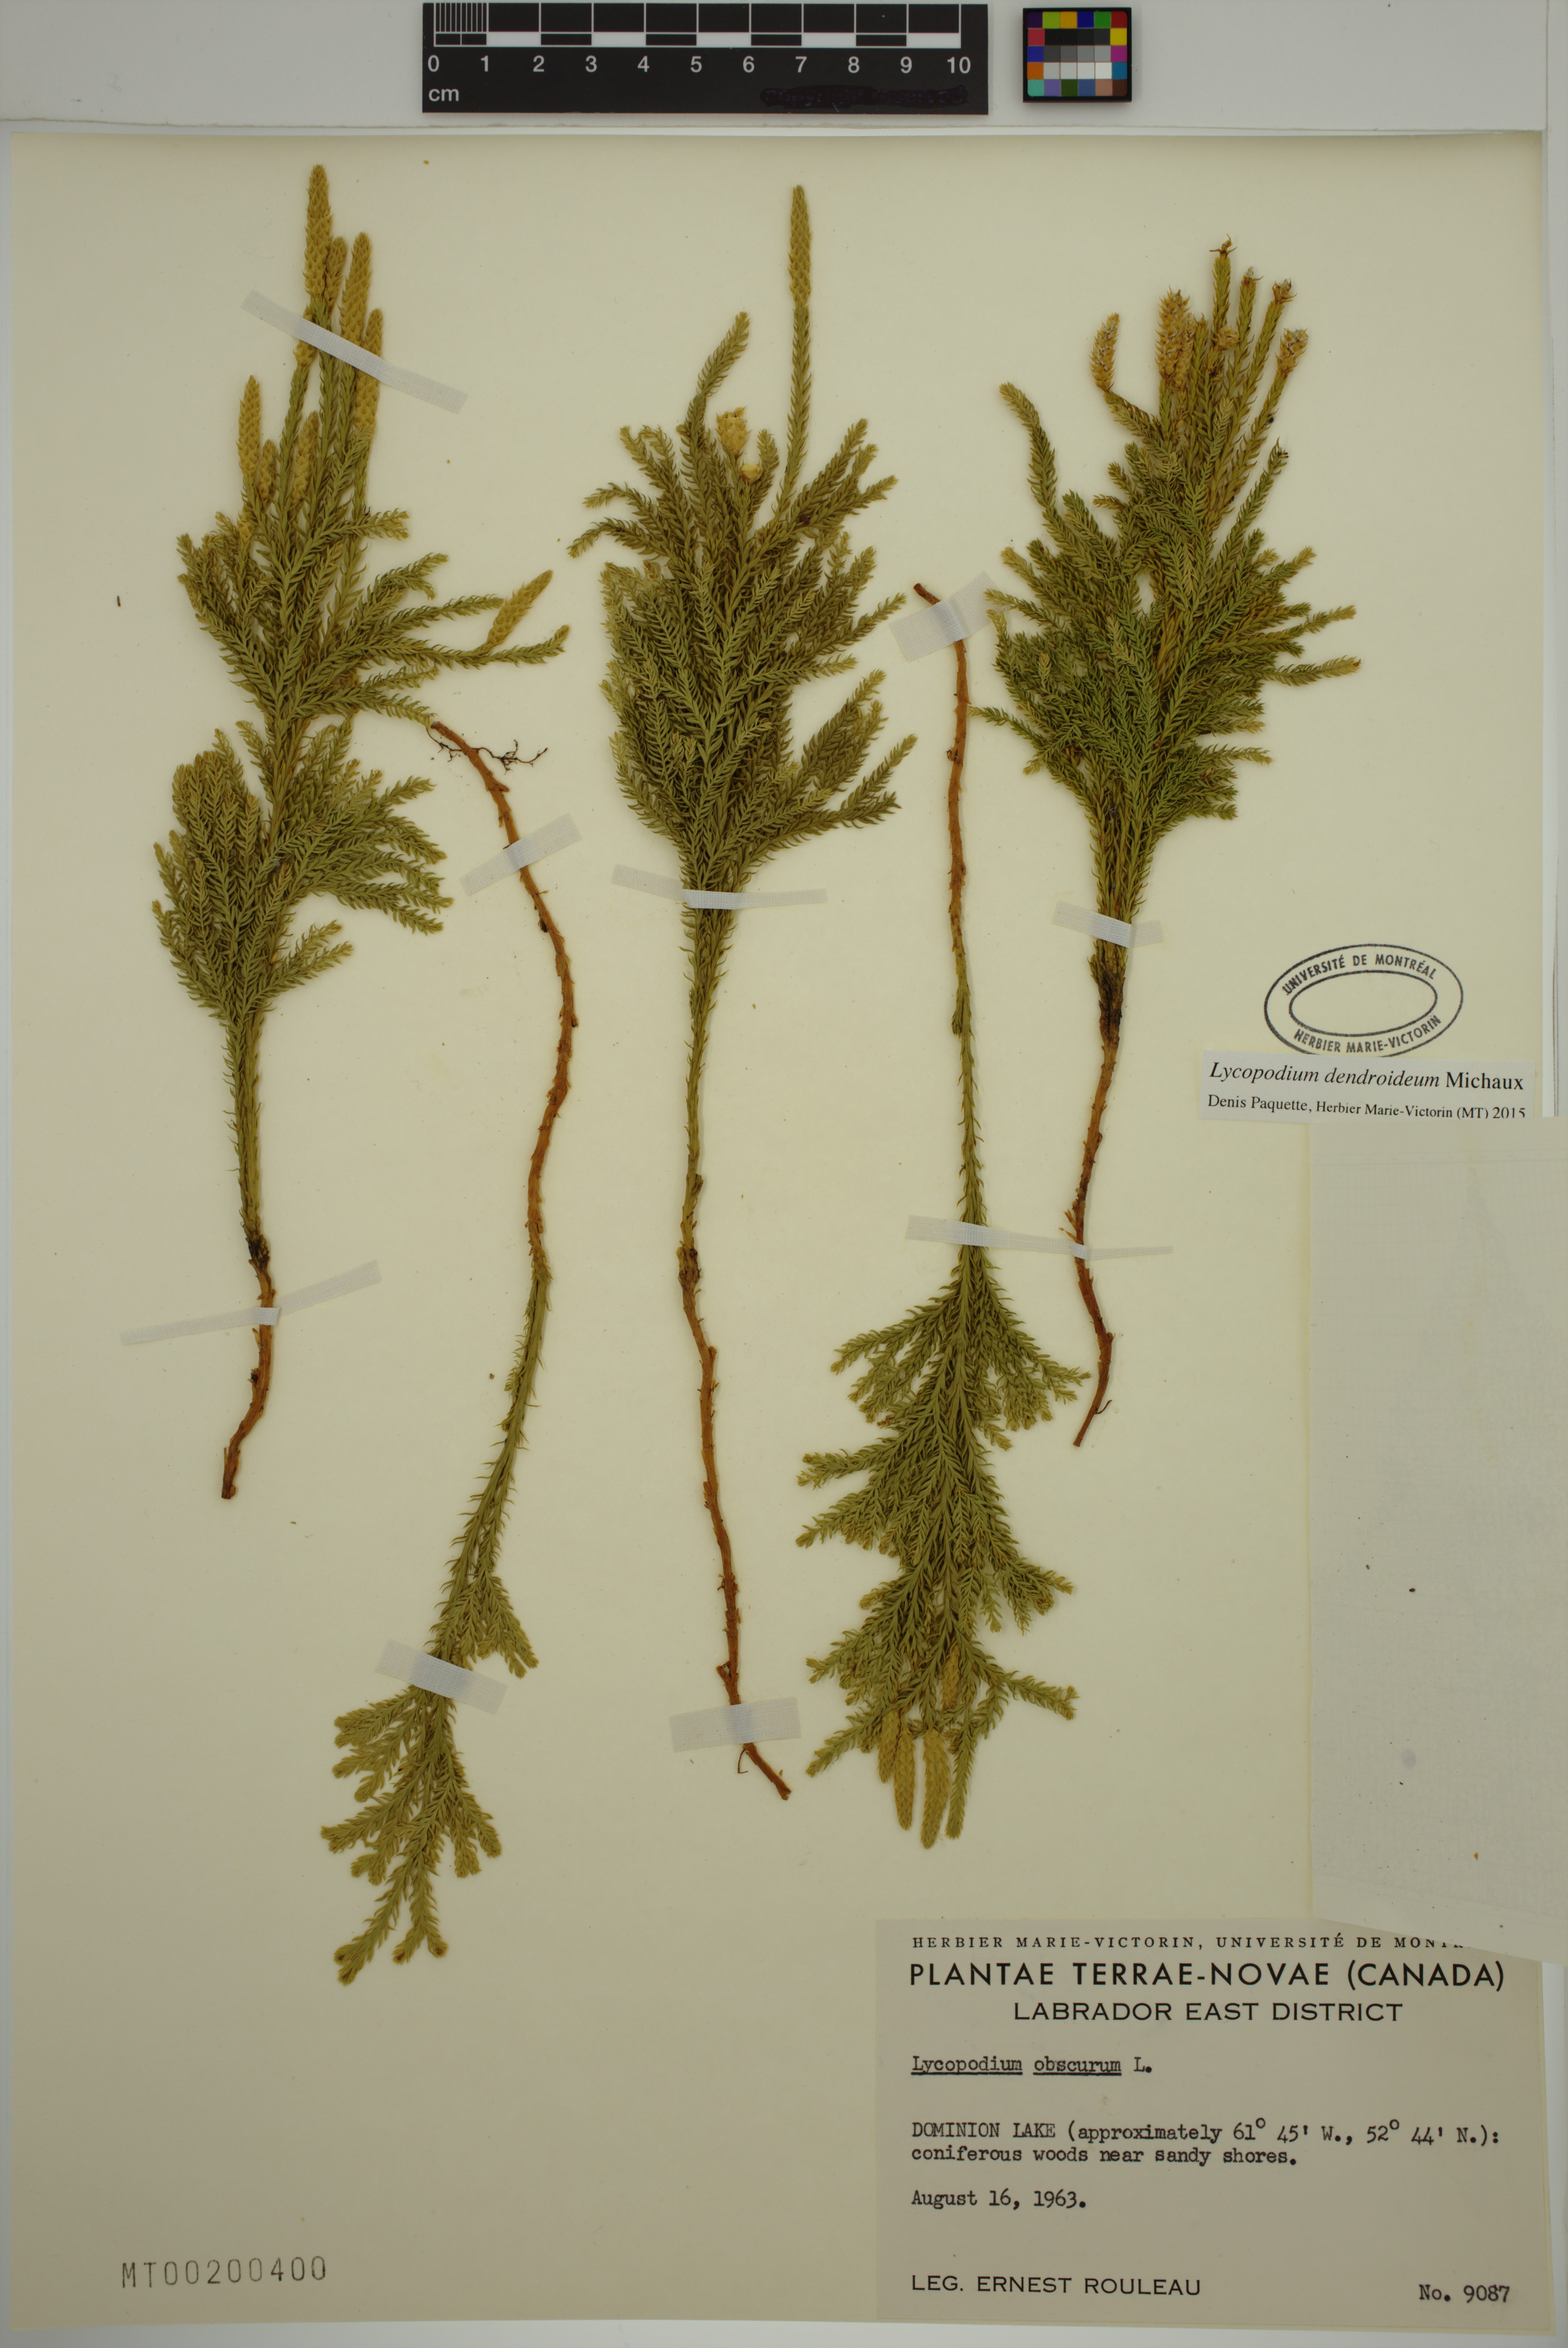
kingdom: Plantae
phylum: Tracheophyta
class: Lycopodiopsida
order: Lycopodiales
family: Lycopodiaceae
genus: Dendrolycopodium
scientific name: Dendrolycopodium dendroideum
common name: Northern tree-clubmoss
